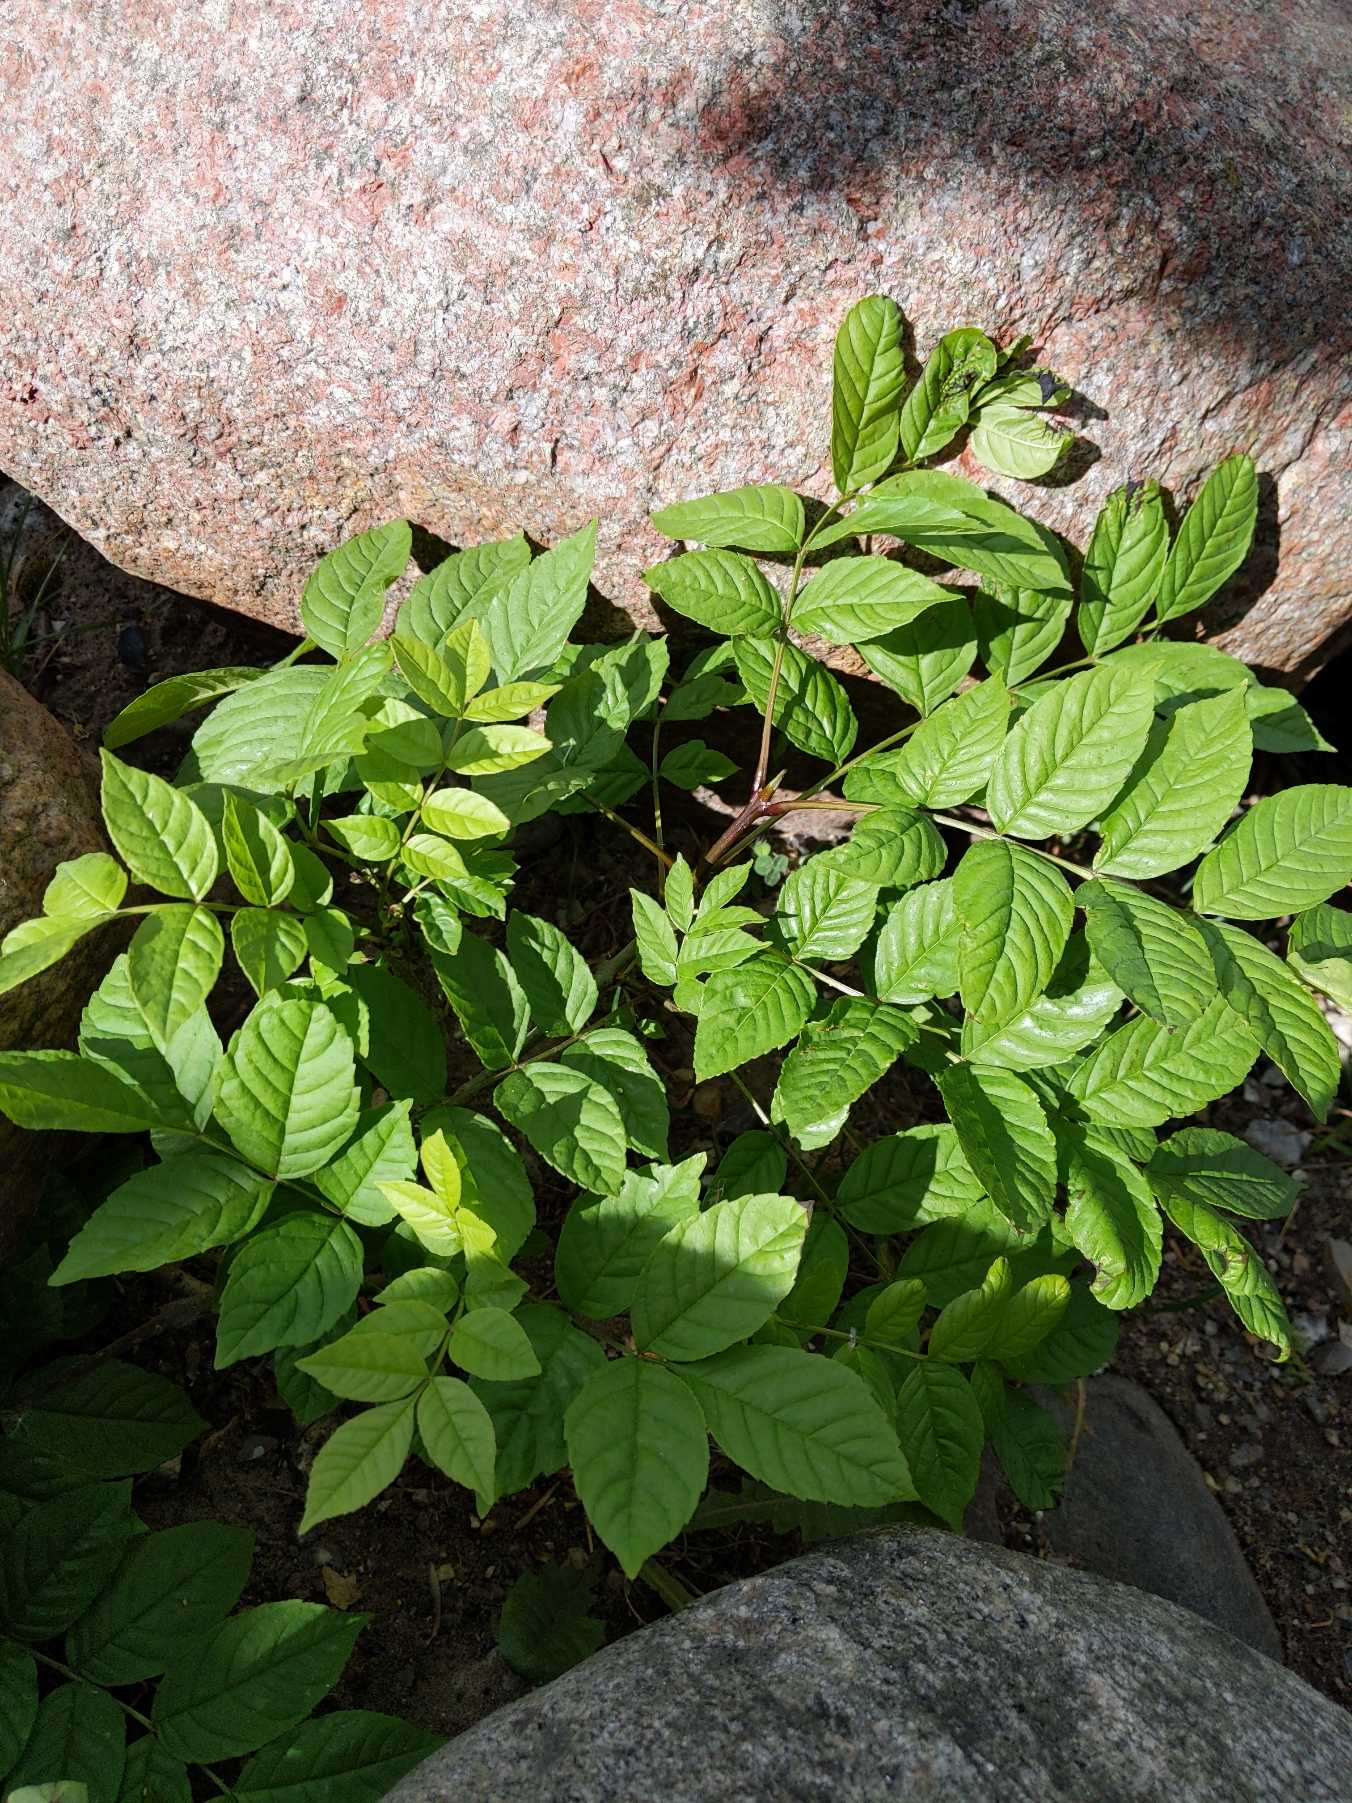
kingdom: Plantae
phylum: Tracheophyta
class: Magnoliopsida
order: Lamiales
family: Oleaceae
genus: Fraxinus
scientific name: Fraxinus excelsior
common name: Ask
